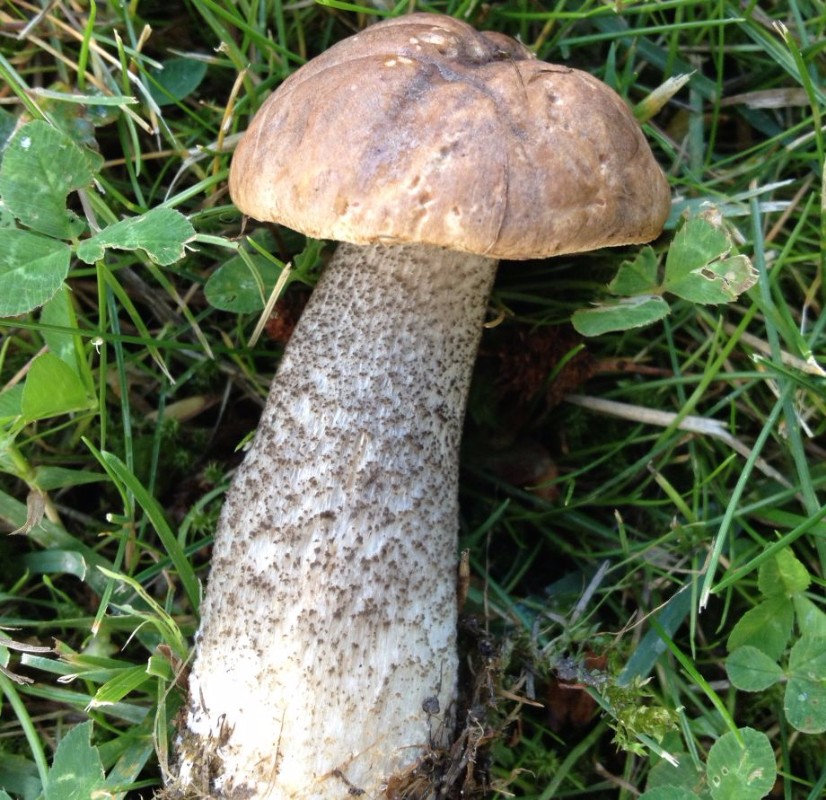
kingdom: Fungi
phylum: Basidiomycota
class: Agaricomycetes
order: Boletales
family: Boletaceae
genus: Leccinum
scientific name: Leccinum scabrum
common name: brun skælrørhat
